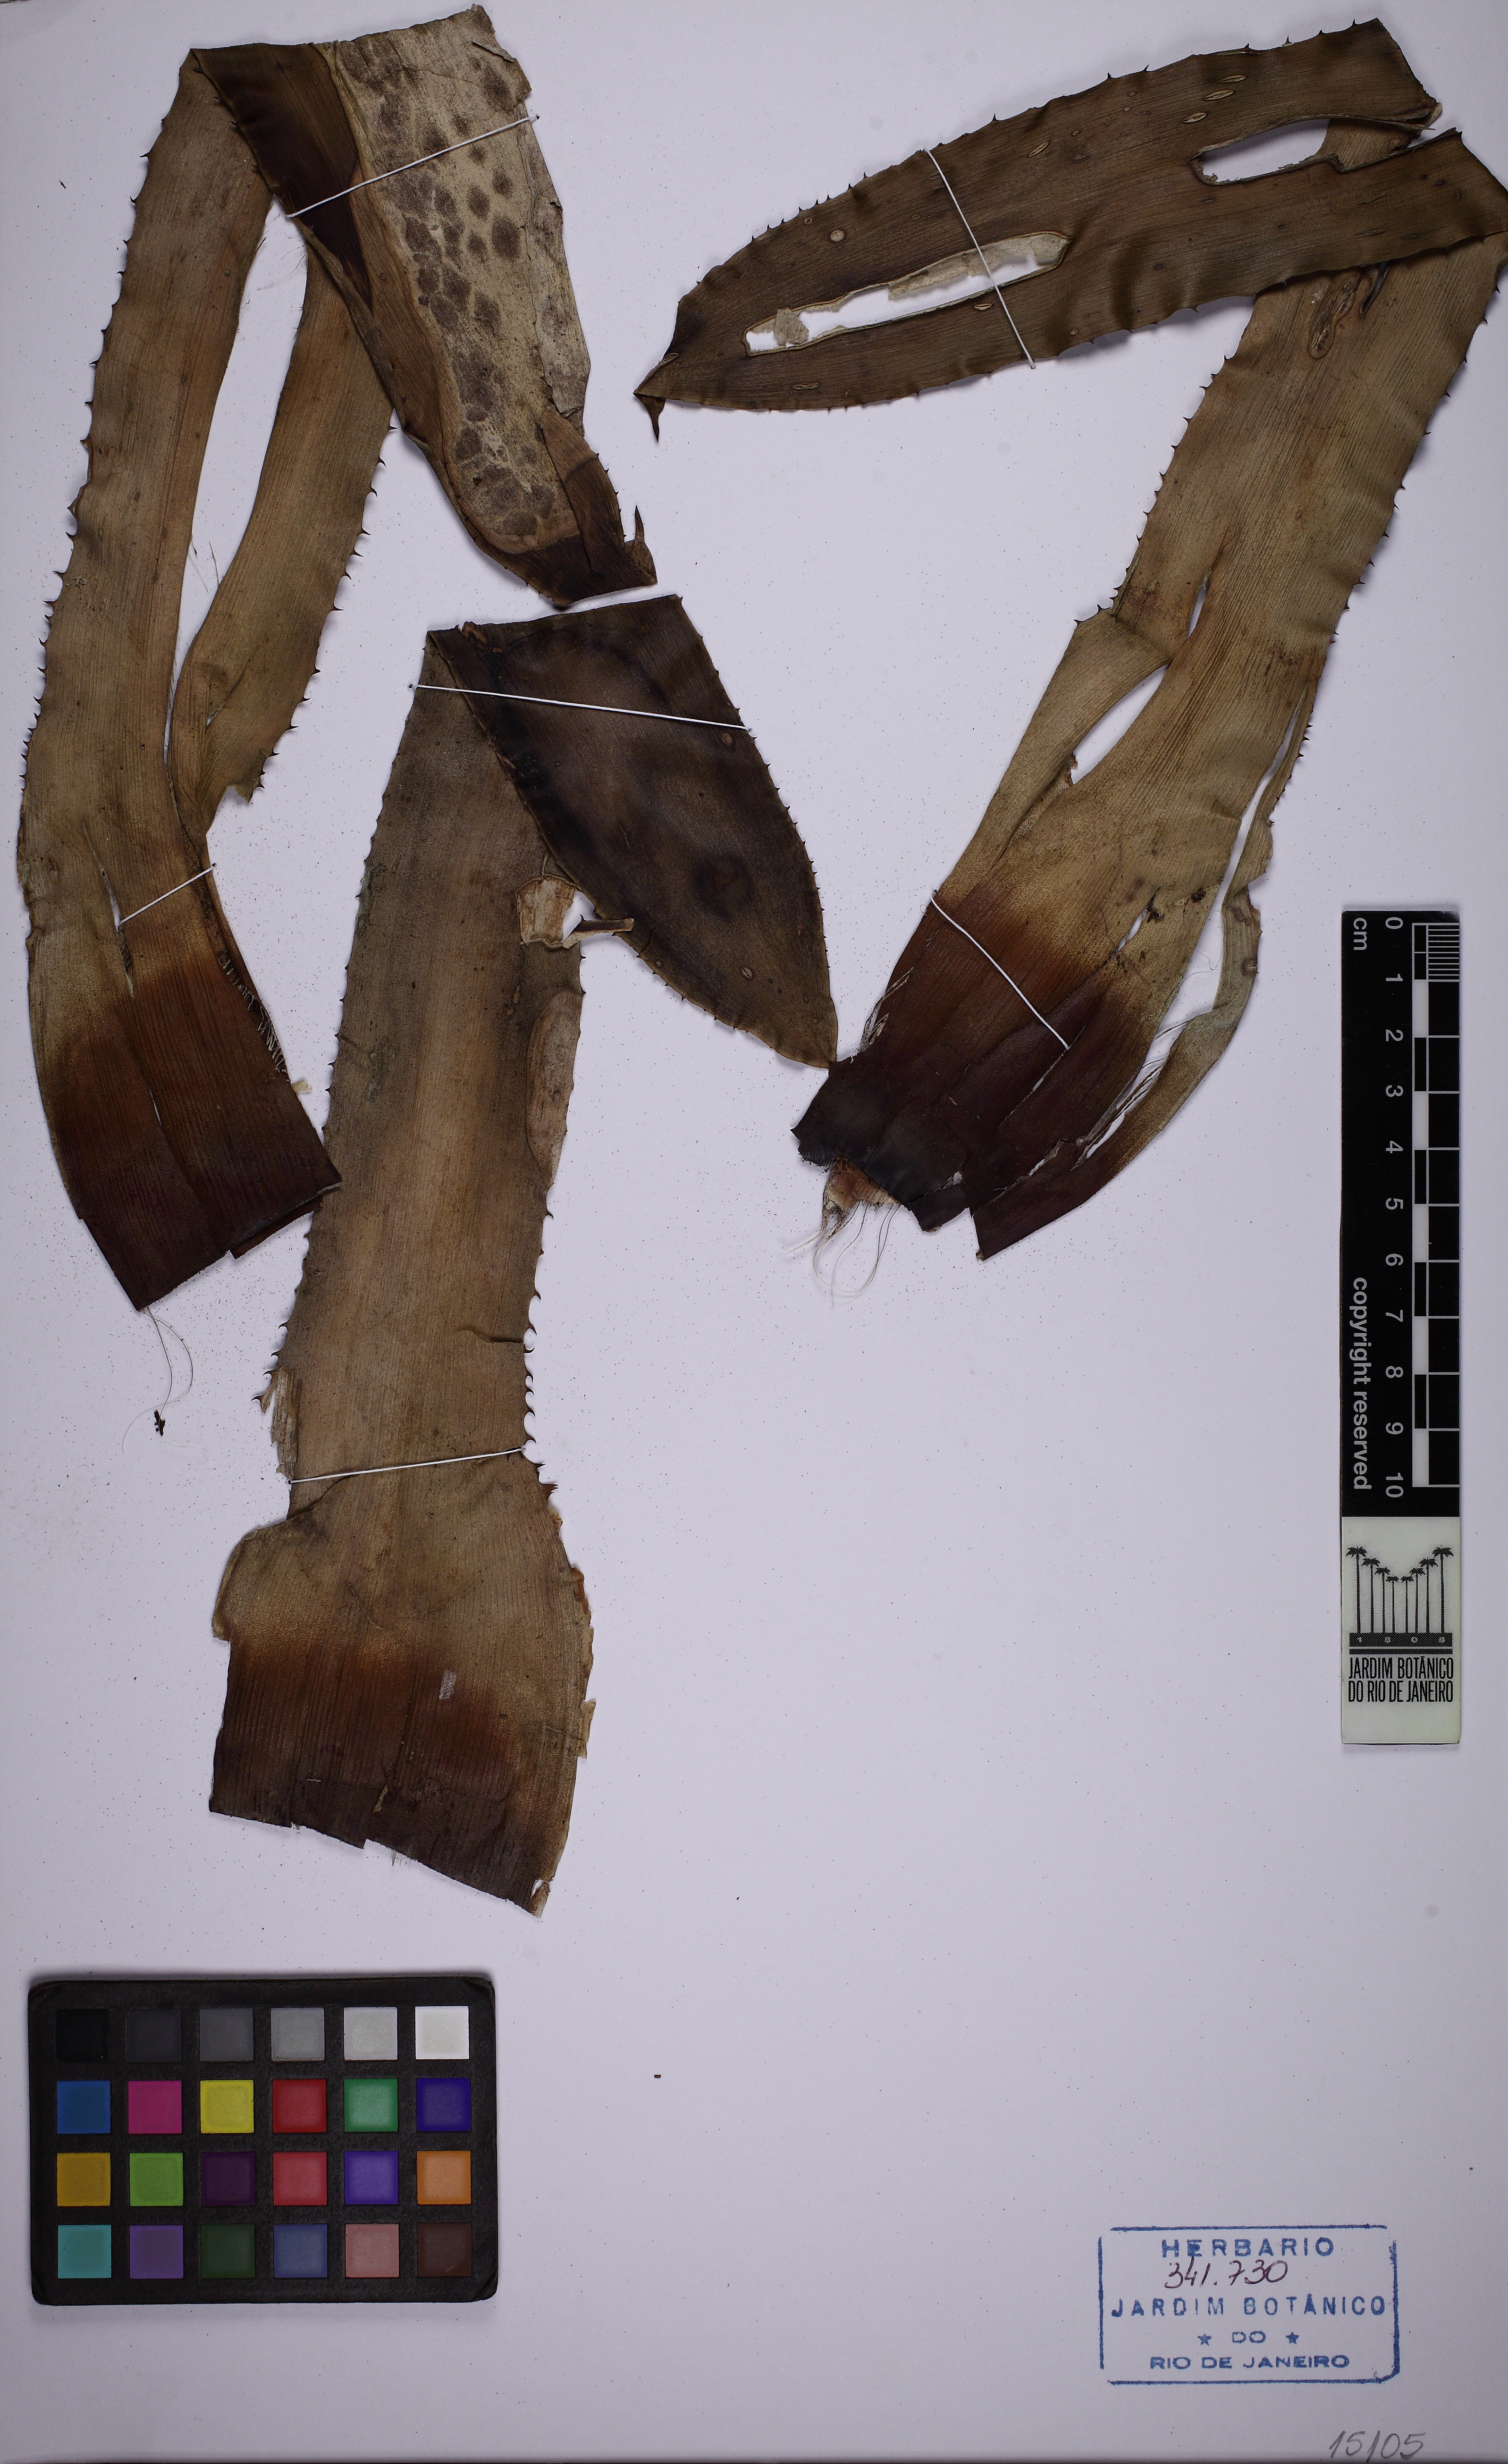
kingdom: Plantae
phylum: Tracheophyta
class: Liliopsida
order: Poales
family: Bromeliaceae
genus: Aechmea
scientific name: Aechmea aquilega
